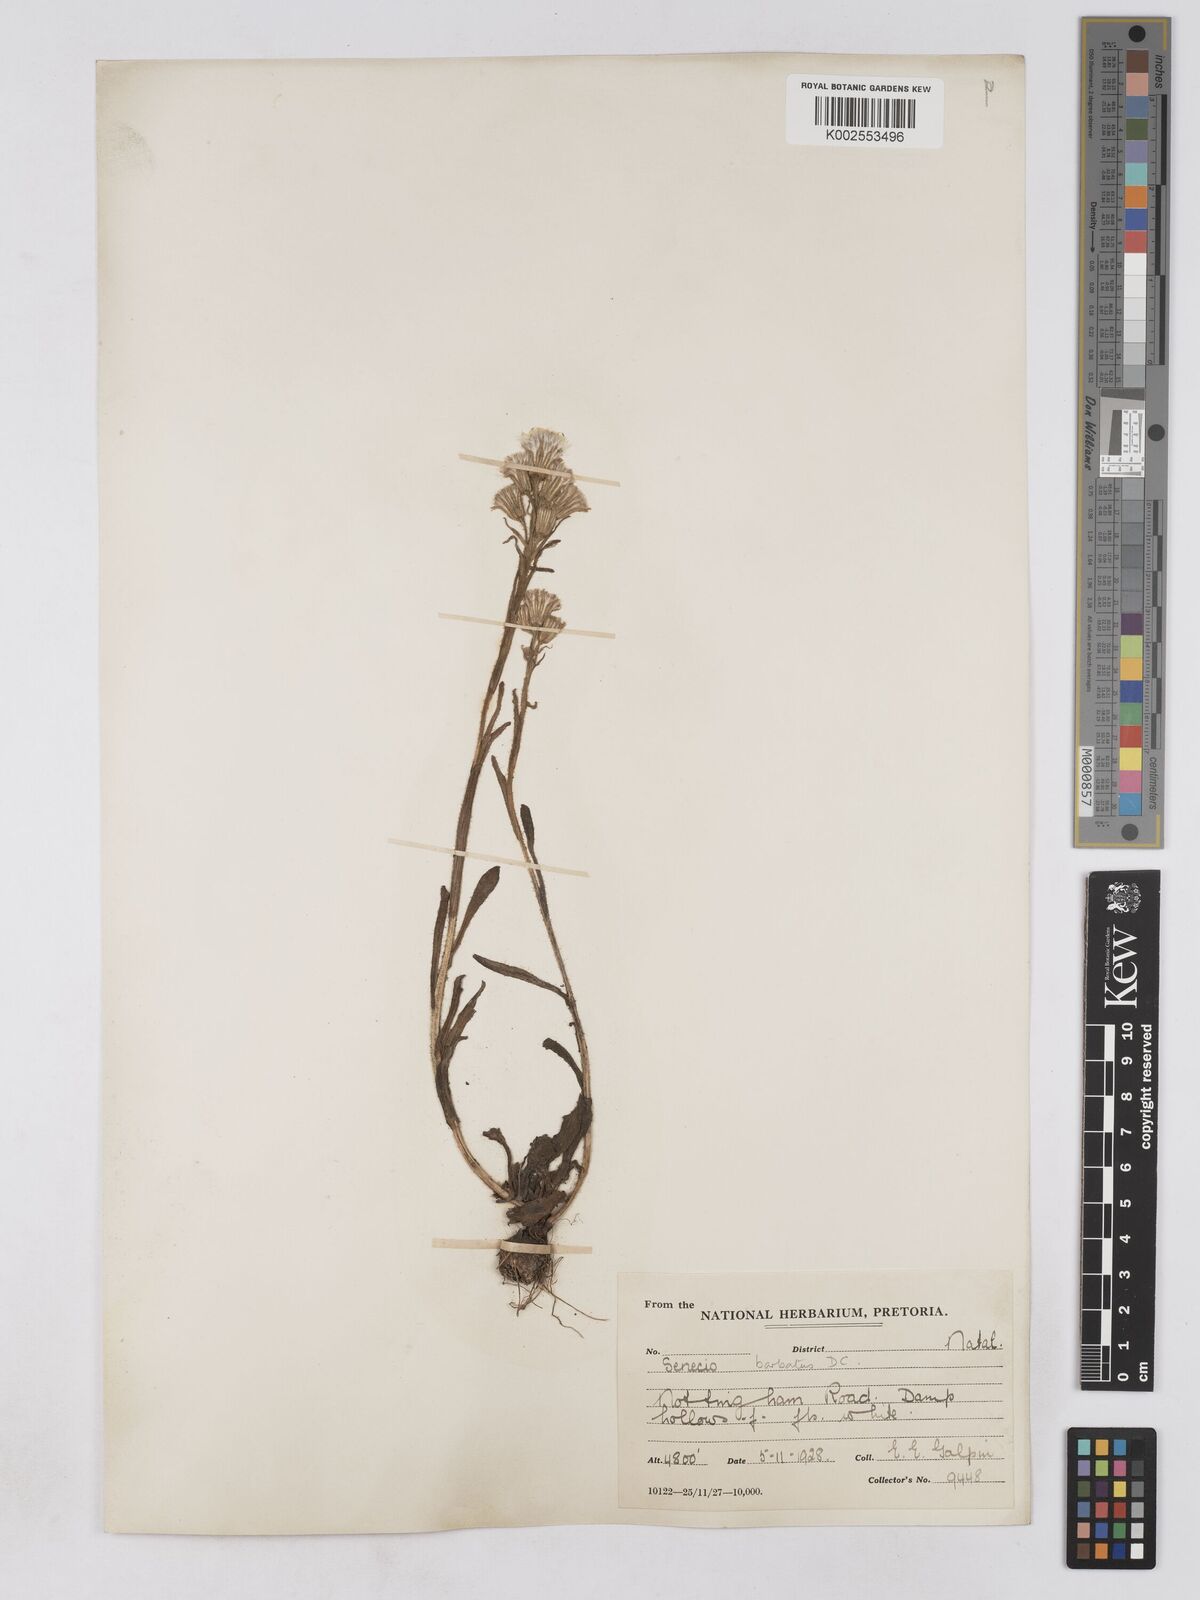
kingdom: Plantae
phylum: Tracheophyta
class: Magnoliopsida
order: Asterales
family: Asteraceae
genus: Senecio
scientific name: Senecio barbatus
